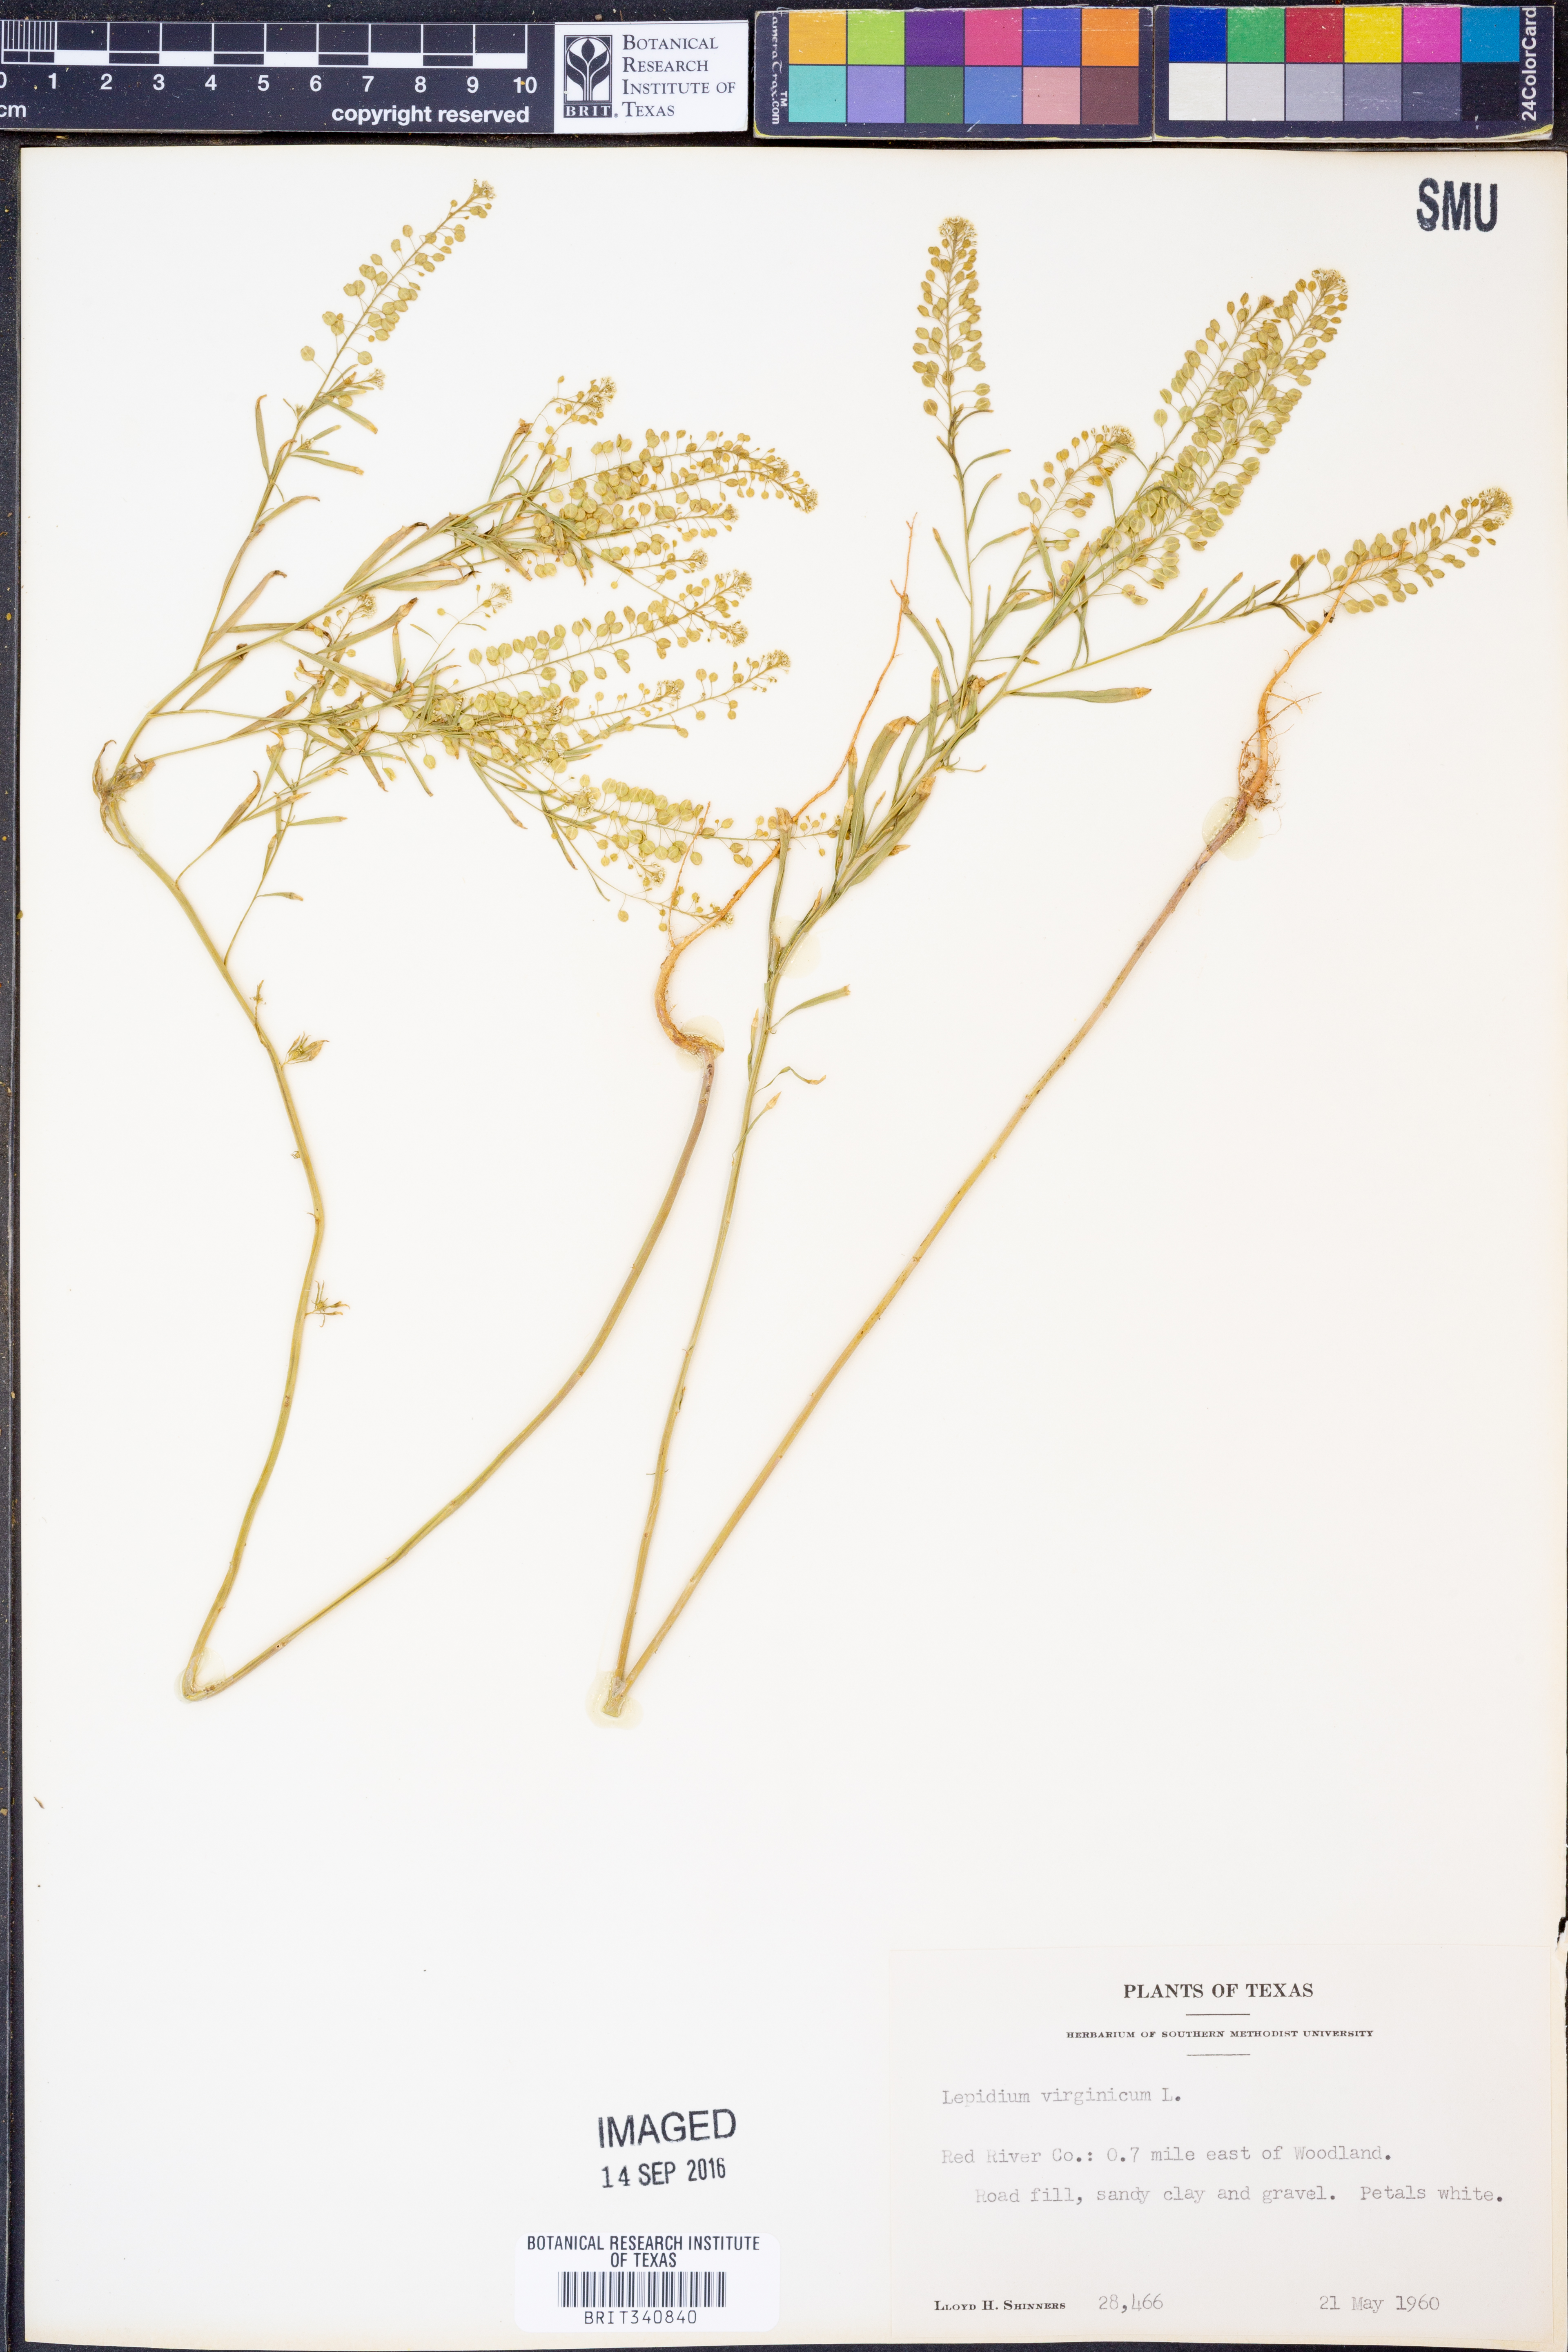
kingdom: Plantae
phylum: Tracheophyta
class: Magnoliopsida
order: Brassicales
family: Brassicaceae
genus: Lepidium
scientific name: Lepidium virginicum
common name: Least pepperwort
